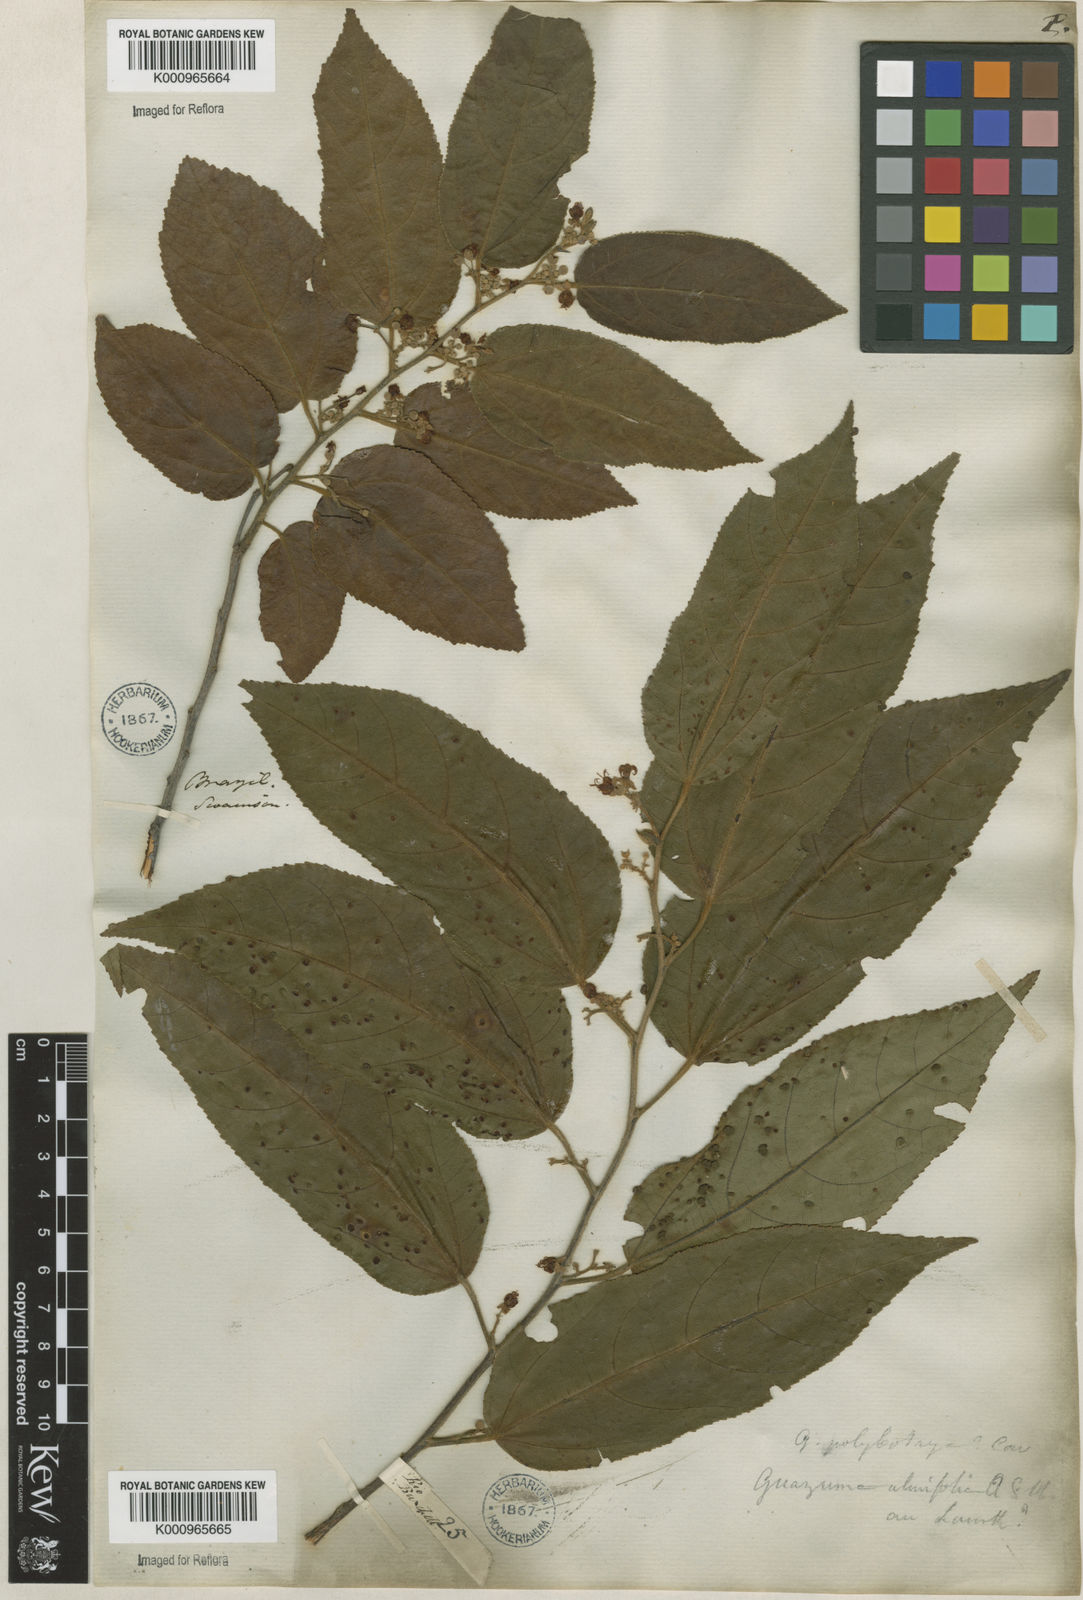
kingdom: Plantae
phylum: Tracheophyta
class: Magnoliopsida
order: Malvales
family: Malvaceae
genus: Guazuma
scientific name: Guazuma ulmifolia
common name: Bastard-cedar
